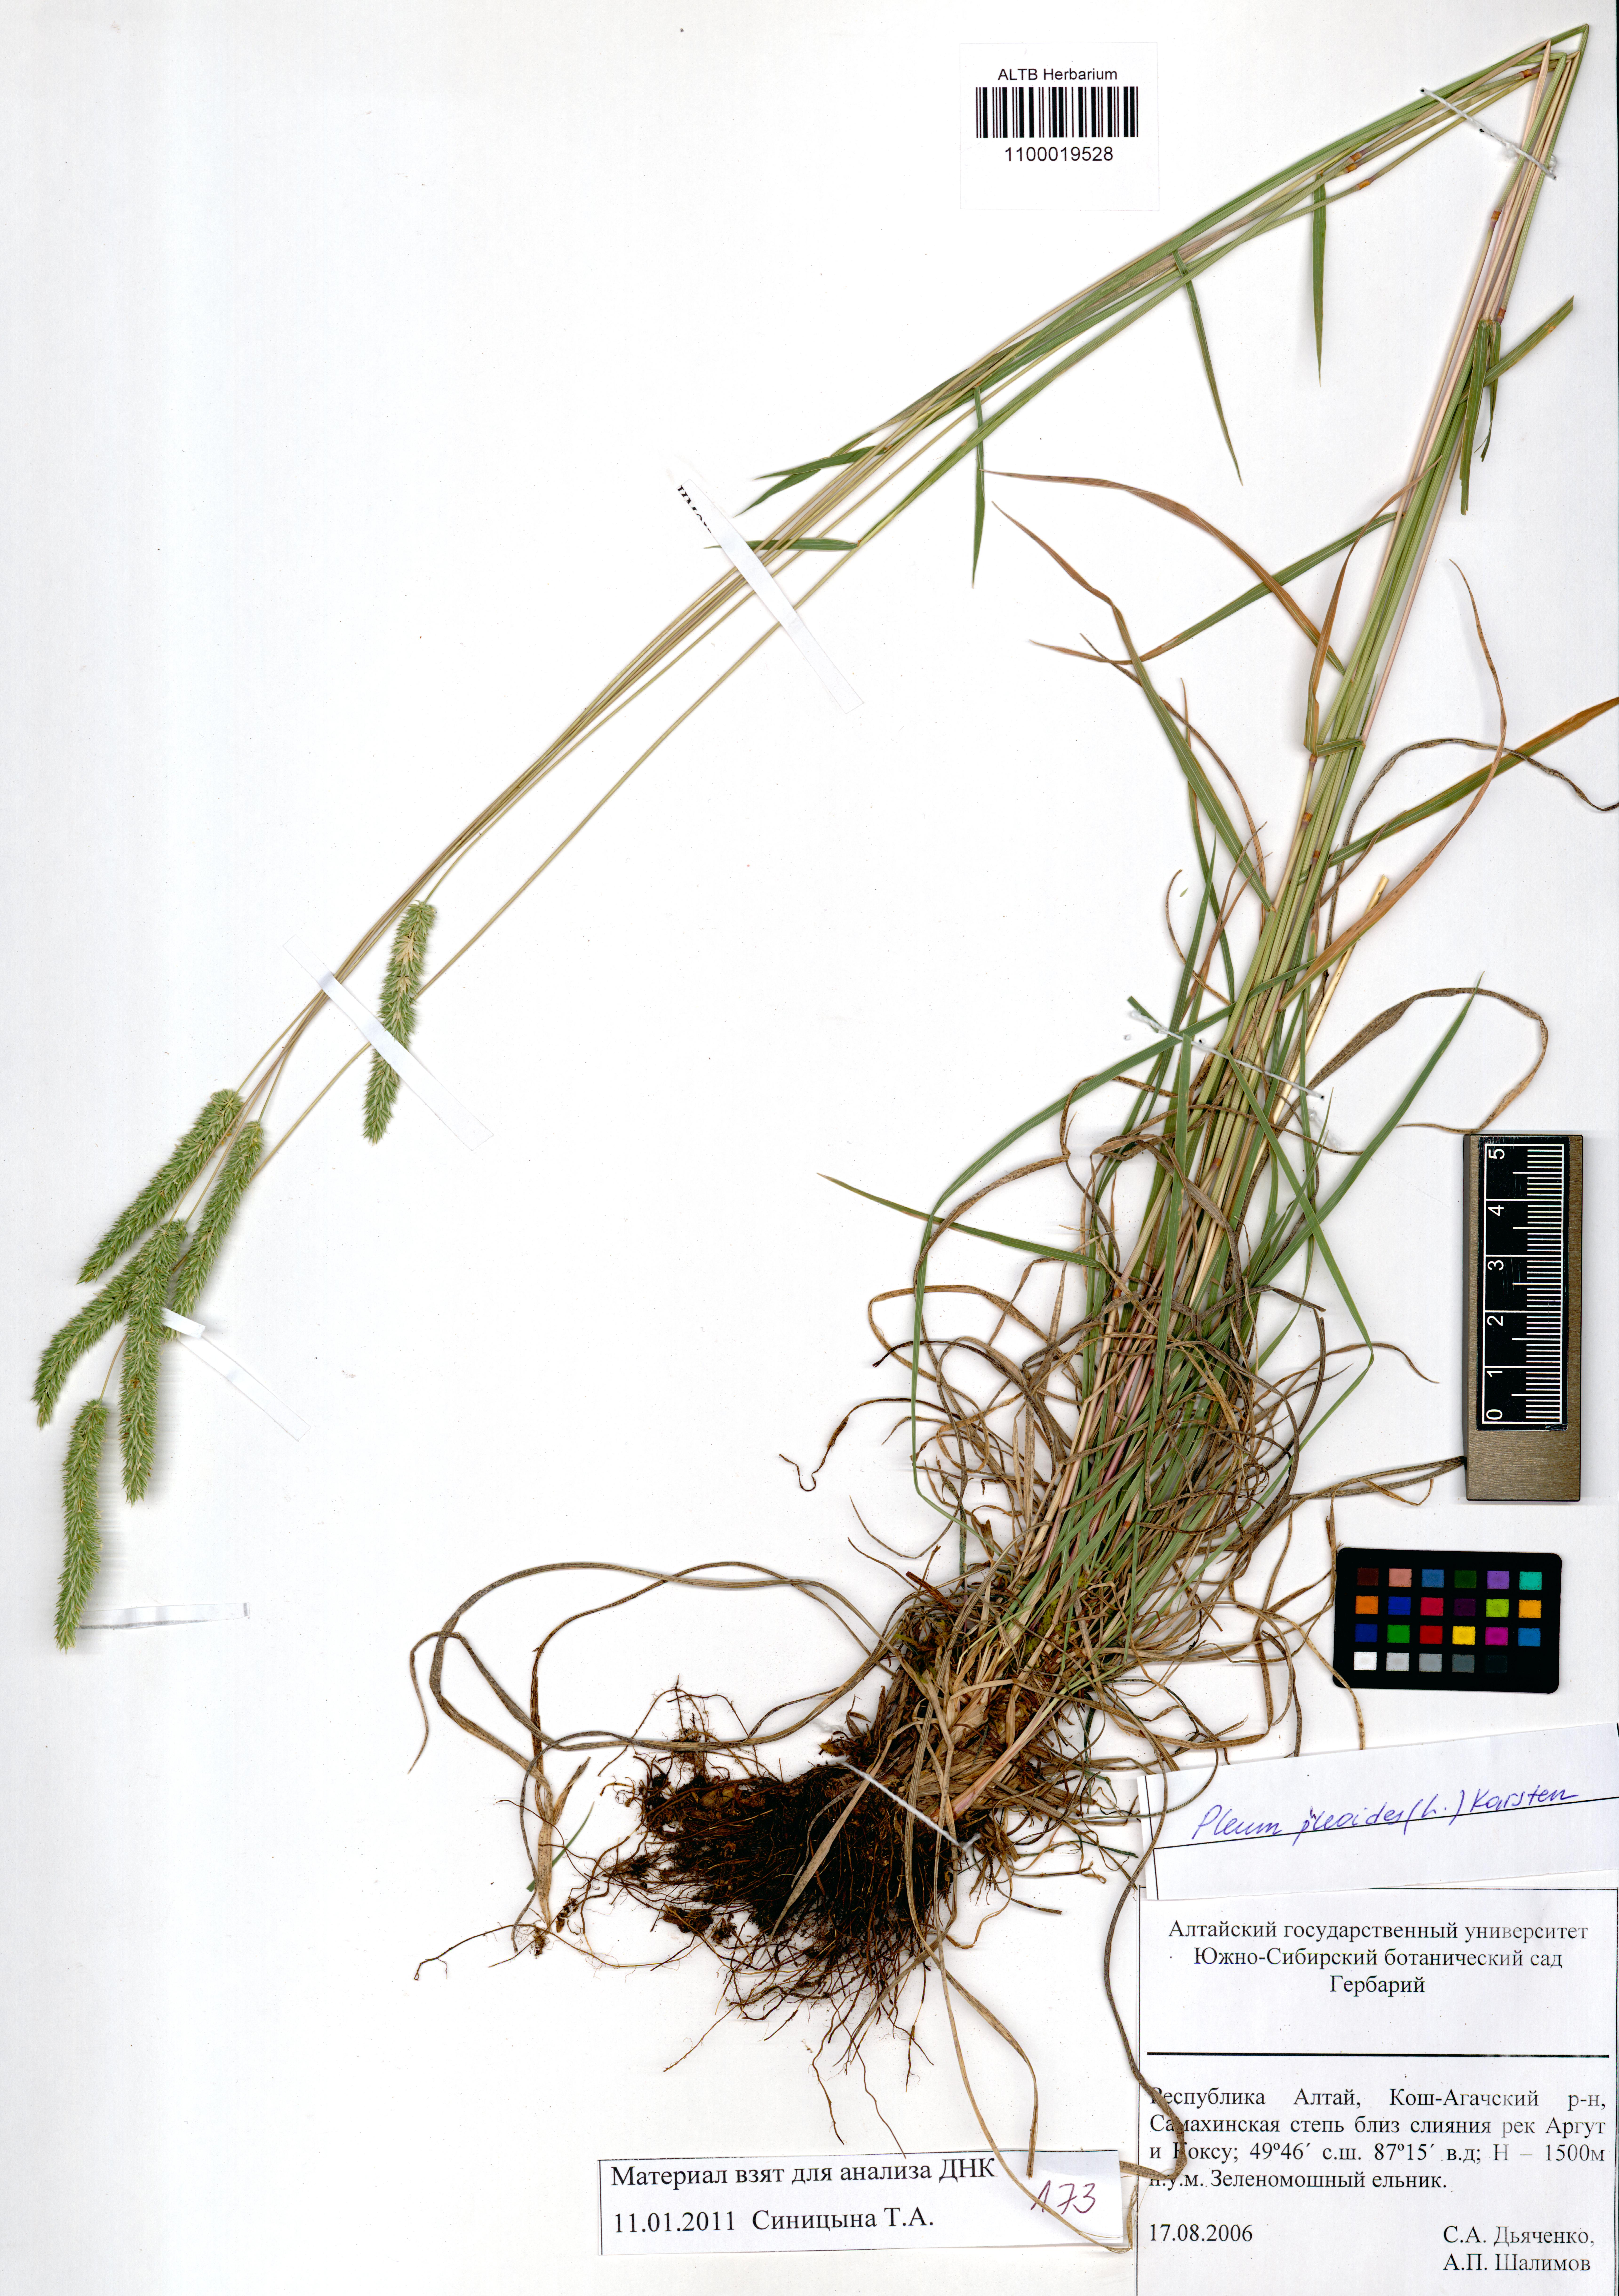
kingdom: Plantae
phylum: Tracheophyta
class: Liliopsida
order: Poales
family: Poaceae
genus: Phleum
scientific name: Phleum phleoides
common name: Purple-stem cat's-tail
